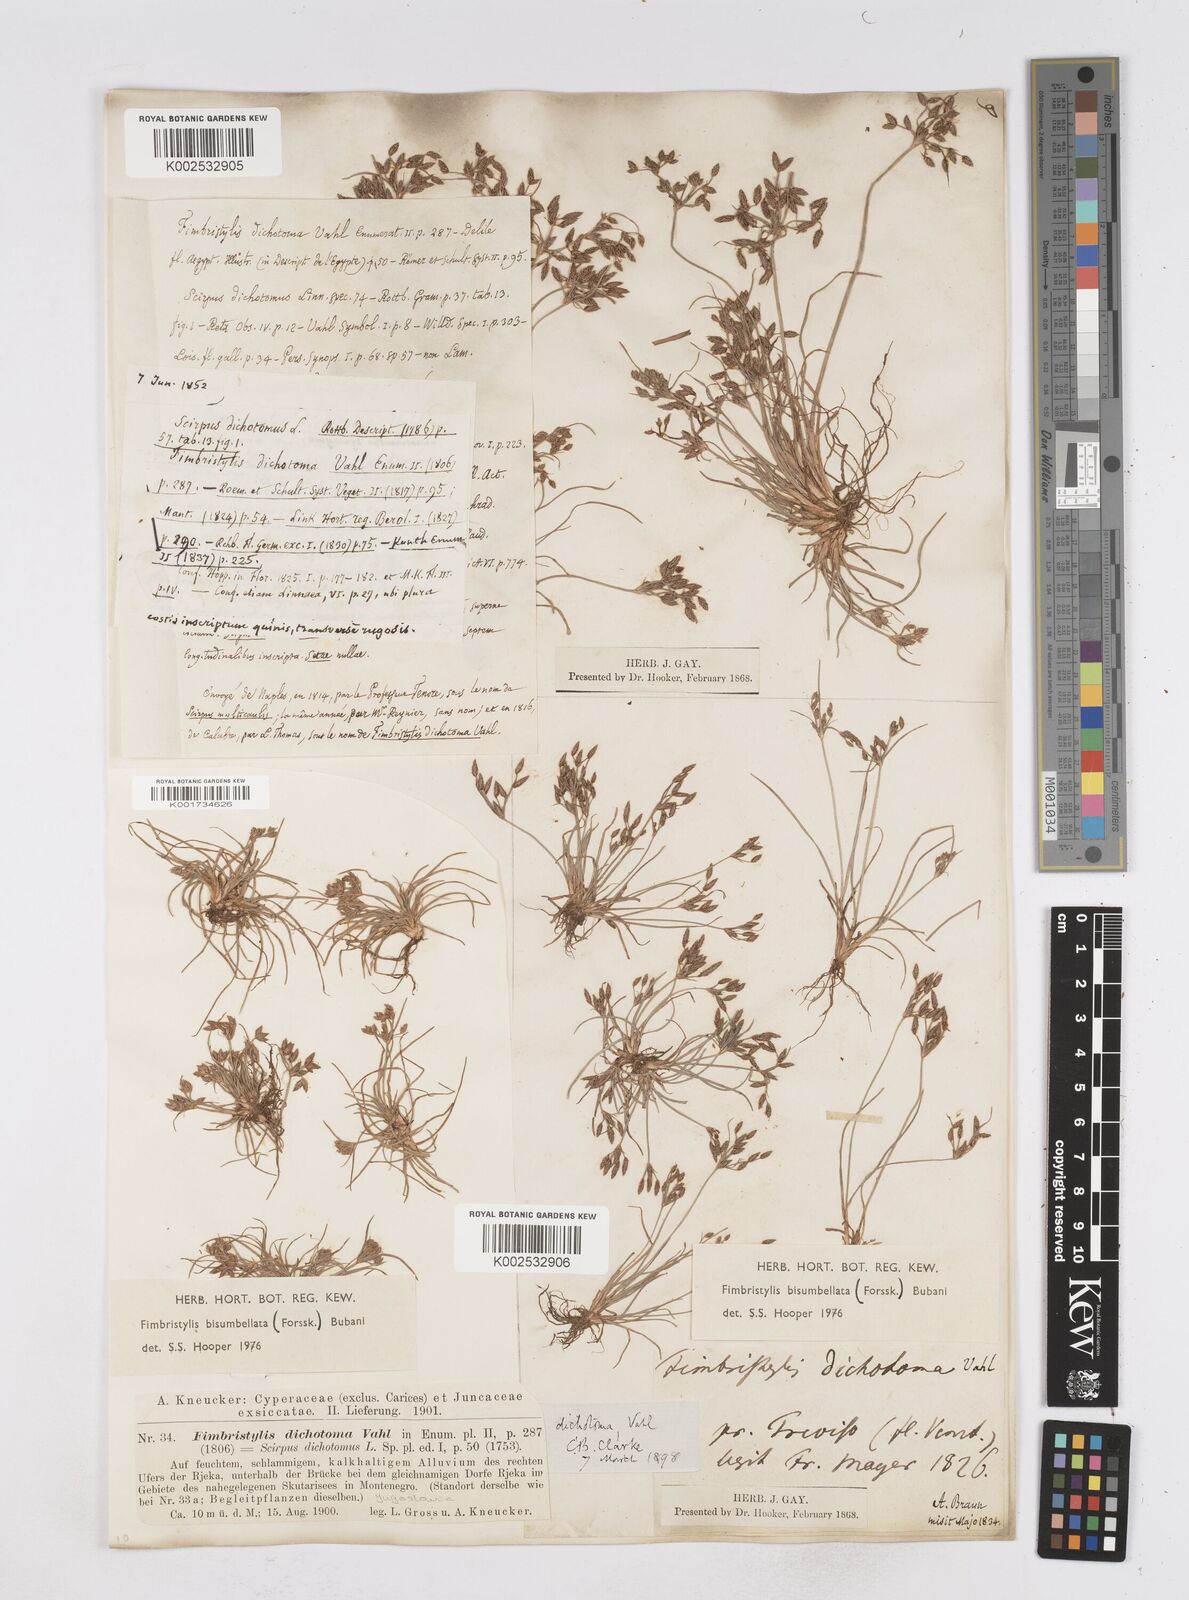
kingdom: Plantae
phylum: Tracheophyta
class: Liliopsida
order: Poales
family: Cyperaceae
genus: Fimbristylis
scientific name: Fimbristylis bisumbellata
